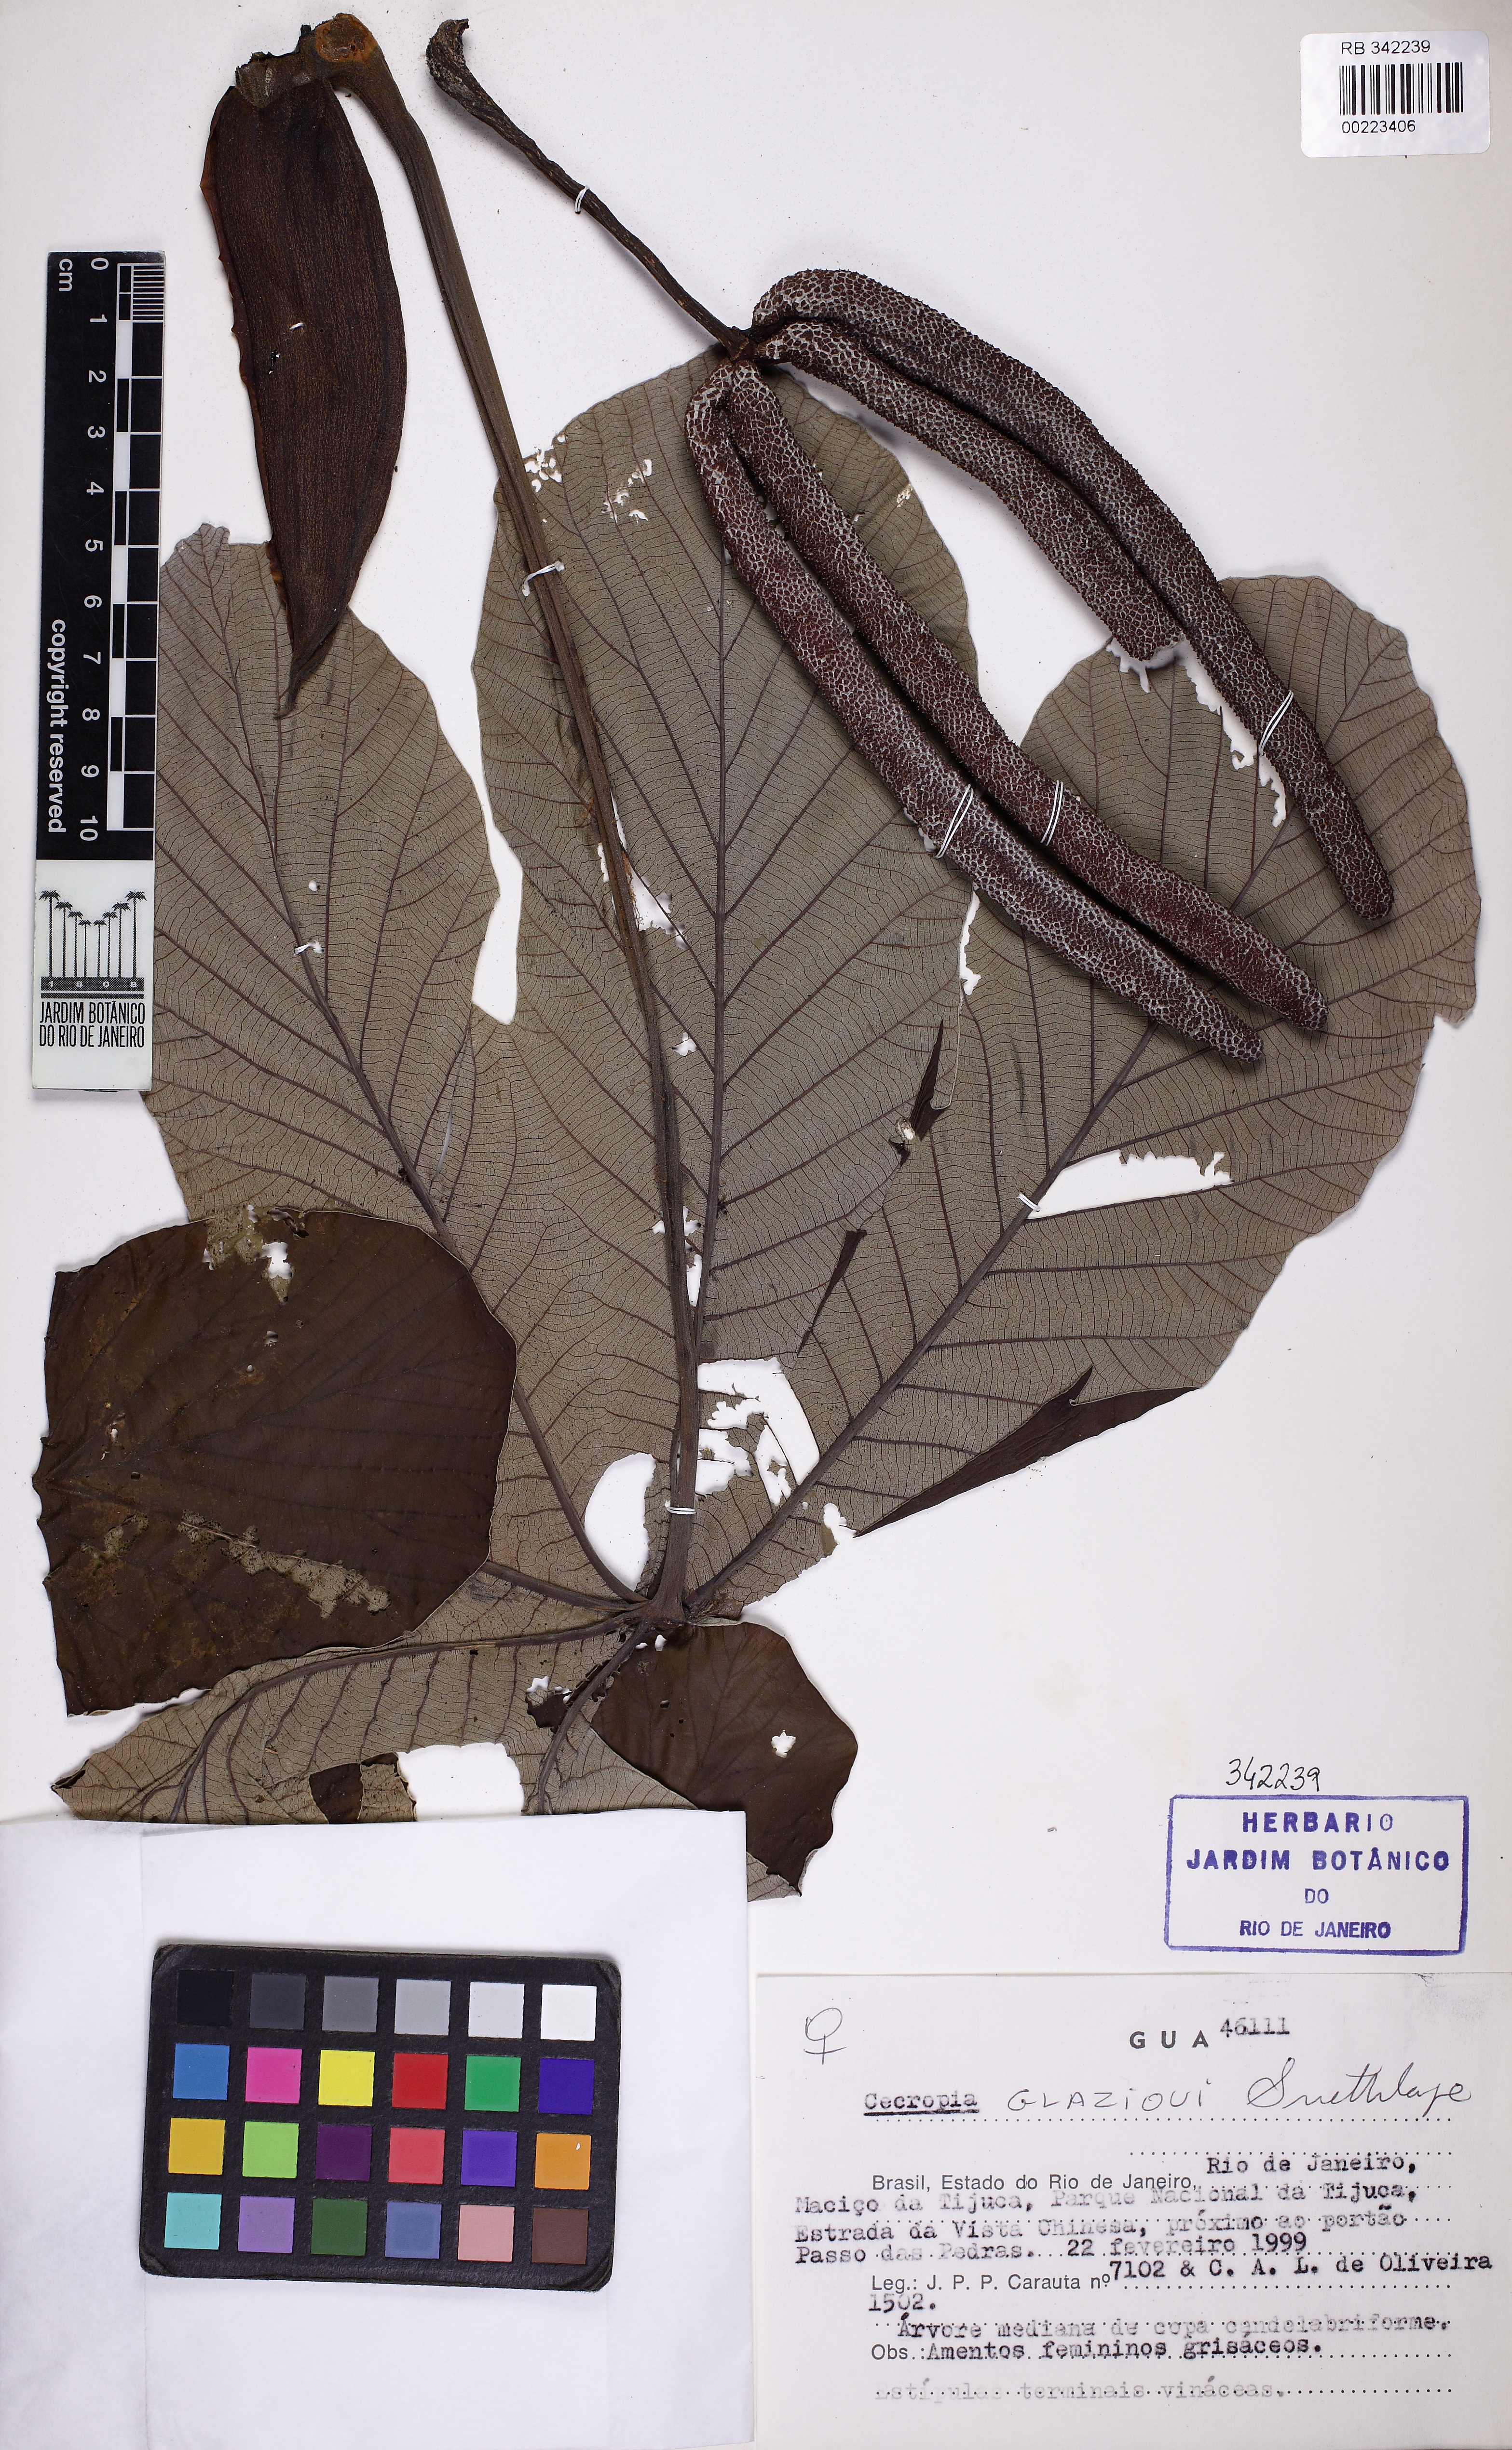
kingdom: Plantae
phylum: Tracheophyta
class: Magnoliopsida
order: Rosales
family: Urticaceae
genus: Cecropia
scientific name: Cecropia glaziovii
